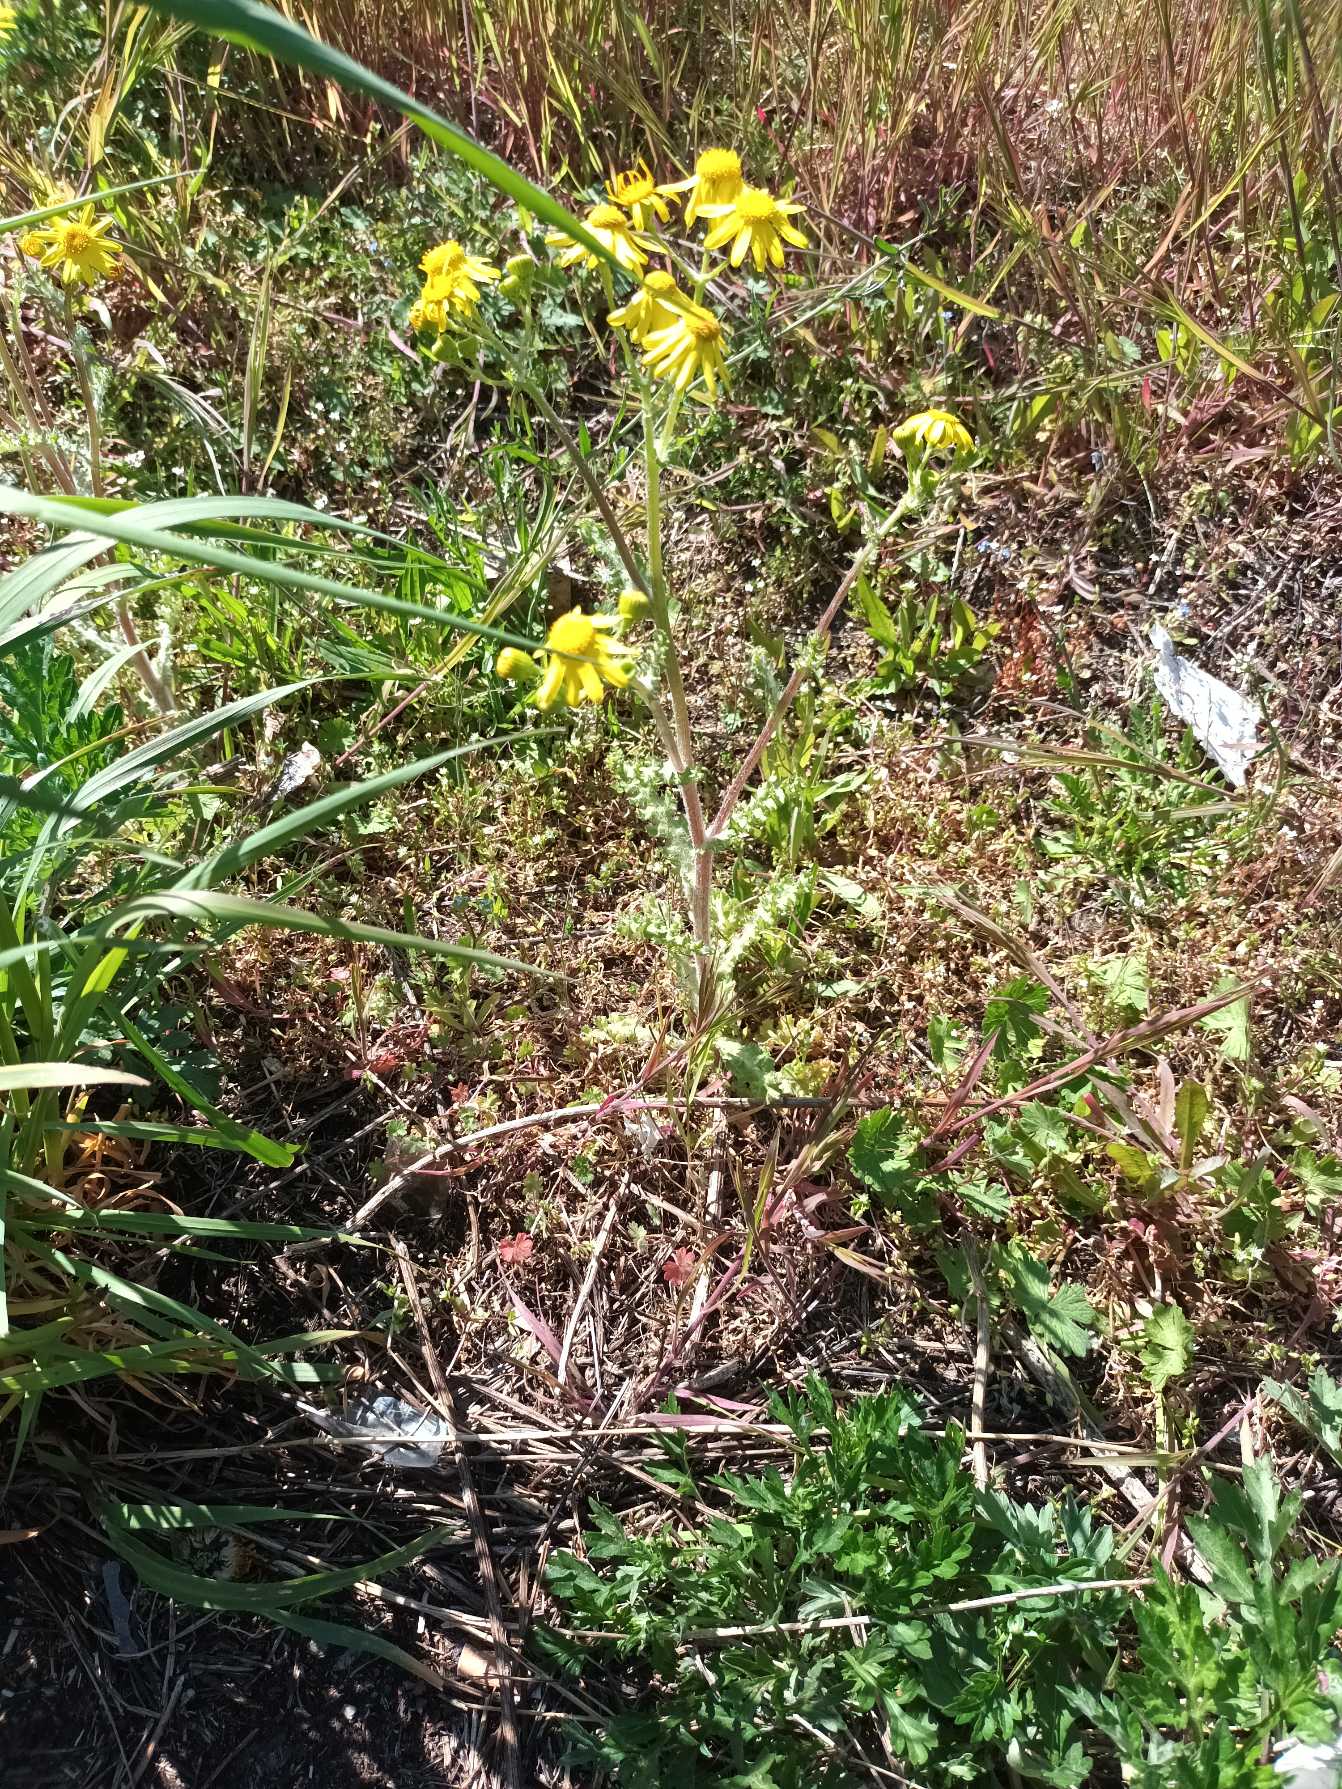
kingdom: Plantae
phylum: Tracheophyta
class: Magnoliopsida
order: Asterales
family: Asteraceae
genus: Senecio
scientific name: Senecio leucanthemifolius
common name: Vår-brandbæger
